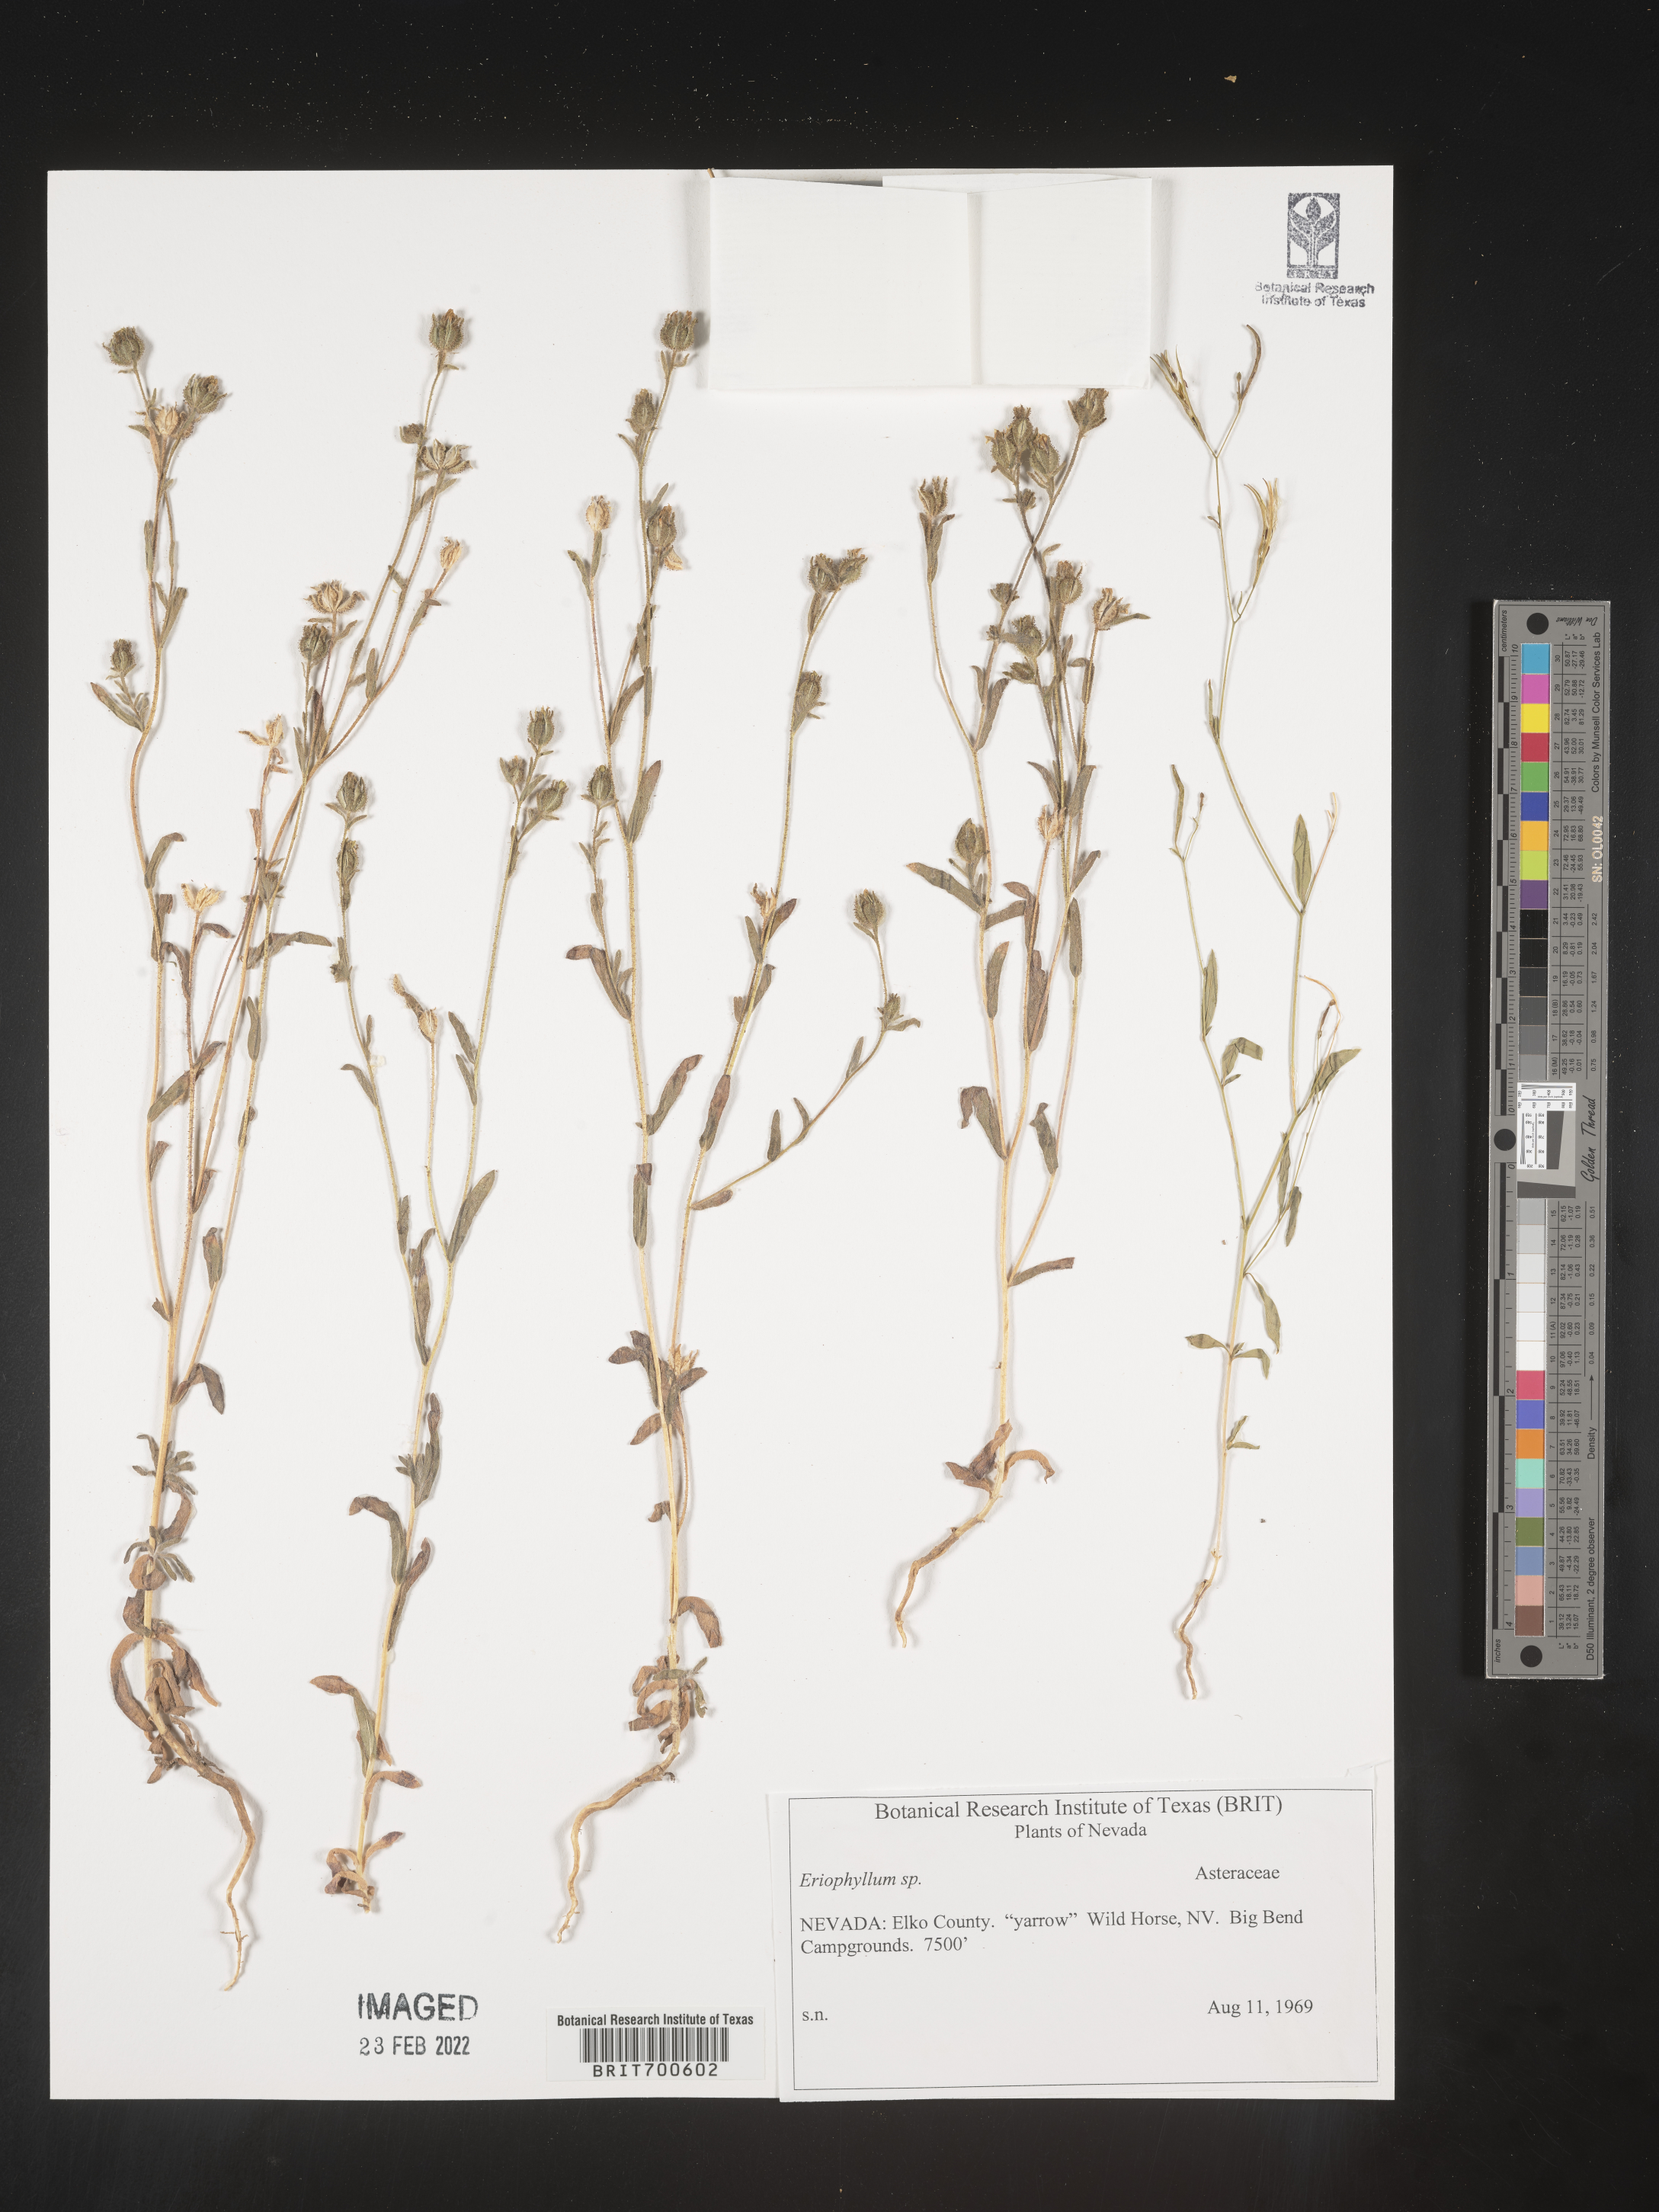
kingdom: Plantae
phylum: Tracheophyta
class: Magnoliopsida
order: Asterales
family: Asteraceae
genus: Eriophyllum
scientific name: Eriophyllum
